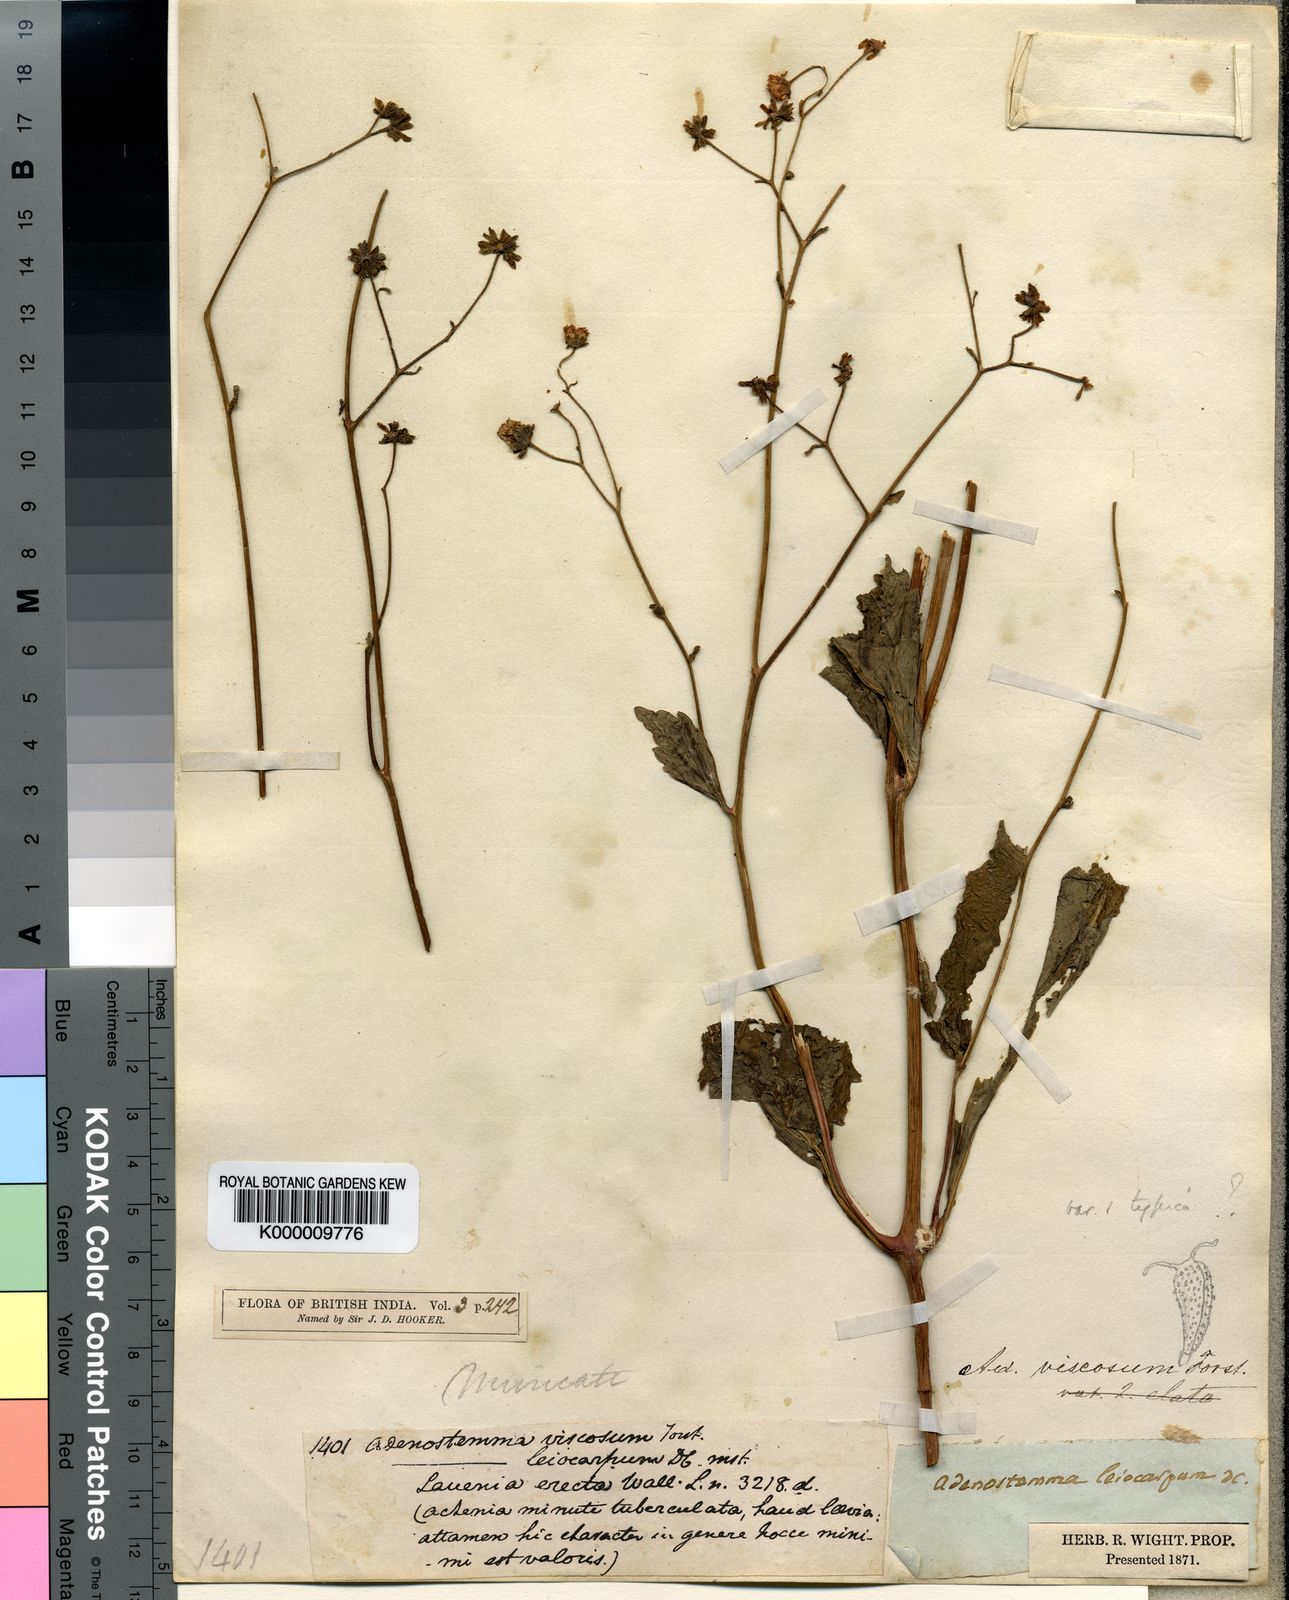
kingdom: Plantae
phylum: Tracheophyta
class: Magnoliopsida
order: Asterales
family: Asteraceae
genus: Adenostemma
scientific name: Adenostemma viscosum
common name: Dungweed
